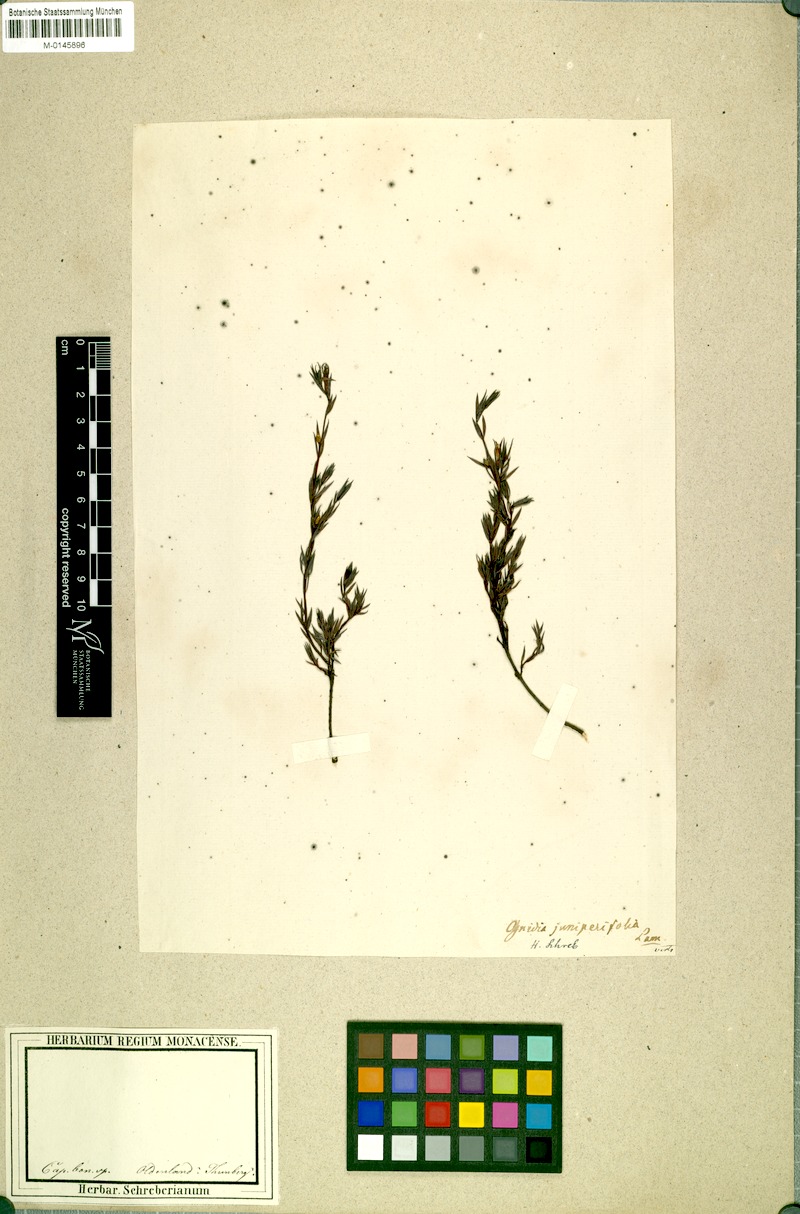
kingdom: Plantae
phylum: Tracheophyta
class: Magnoliopsida
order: Malvales
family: Thymelaeaceae
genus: Gnidia
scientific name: Gnidia juniperifolia
